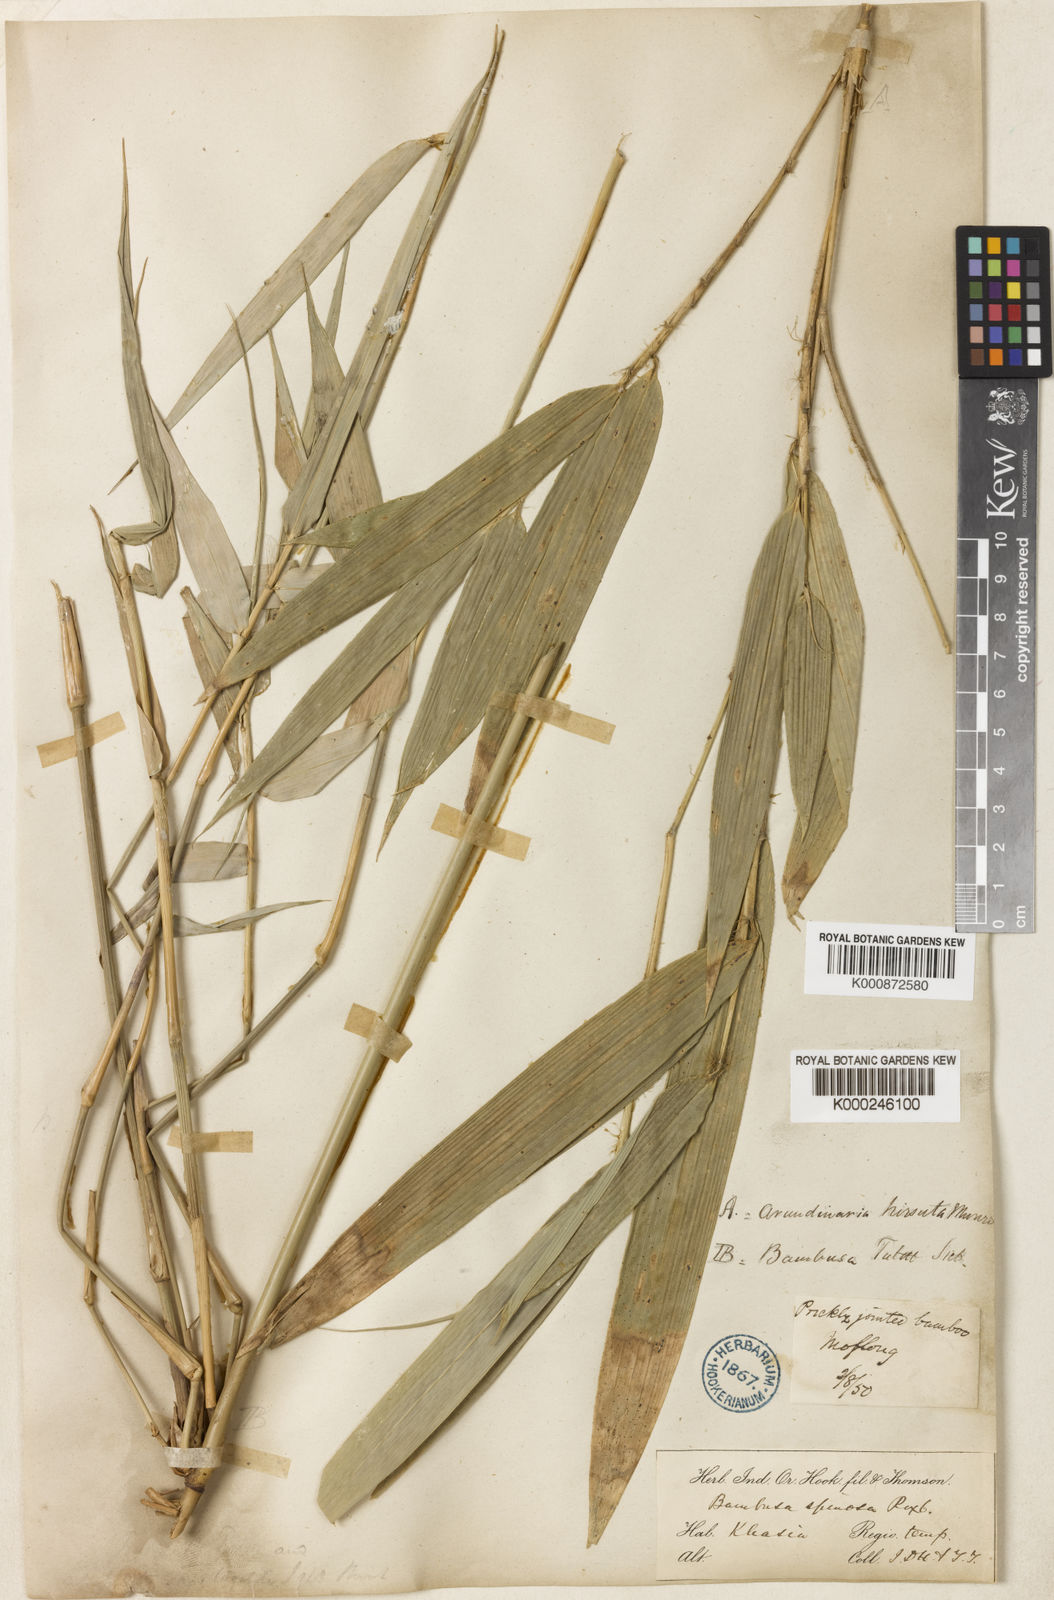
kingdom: Plantae
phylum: Tracheophyta
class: Liliopsida
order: Poales
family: Poaceae
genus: Yushania
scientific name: Yushania
